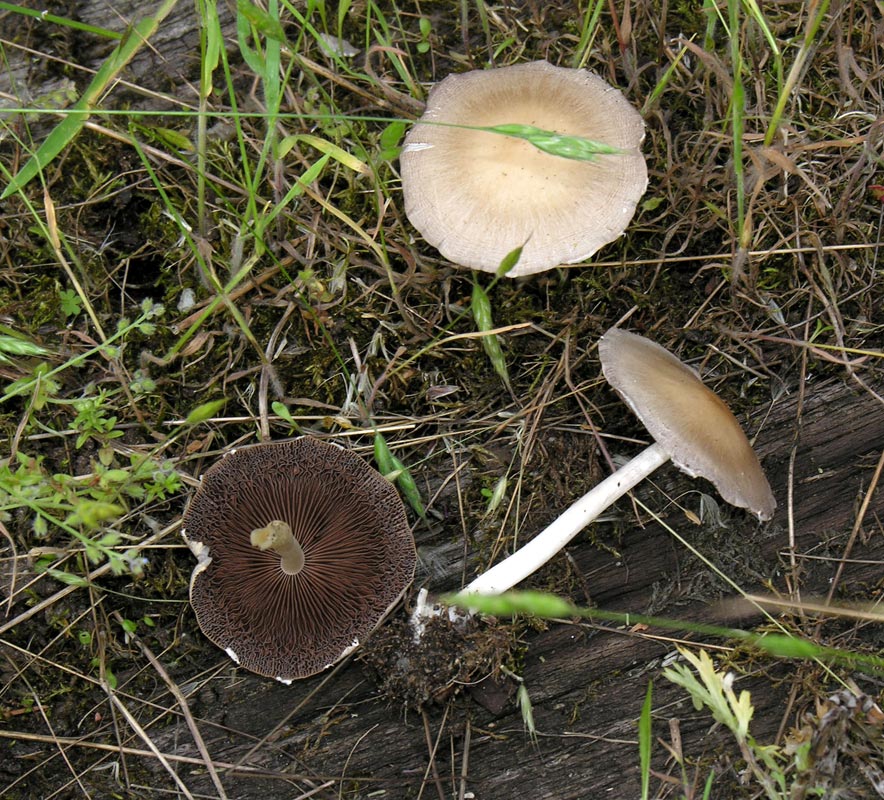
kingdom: Fungi
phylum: Basidiomycota
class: Agaricomycetes
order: Agaricales
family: Psathyrellaceae
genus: Candolleomyces
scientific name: Candolleomyces candolleanus
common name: Candolles mørkhat
